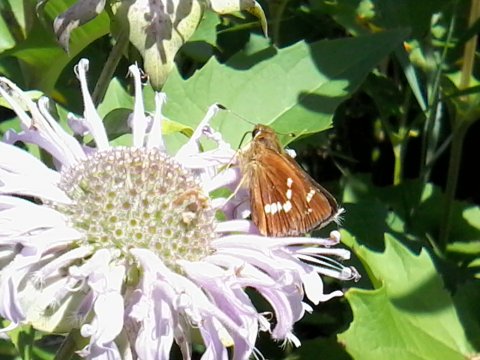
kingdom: Animalia
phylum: Arthropoda
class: Insecta
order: Lepidoptera
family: Hesperiidae
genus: Hesperia
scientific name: Hesperia leonardus
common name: Leonard's Skipper
